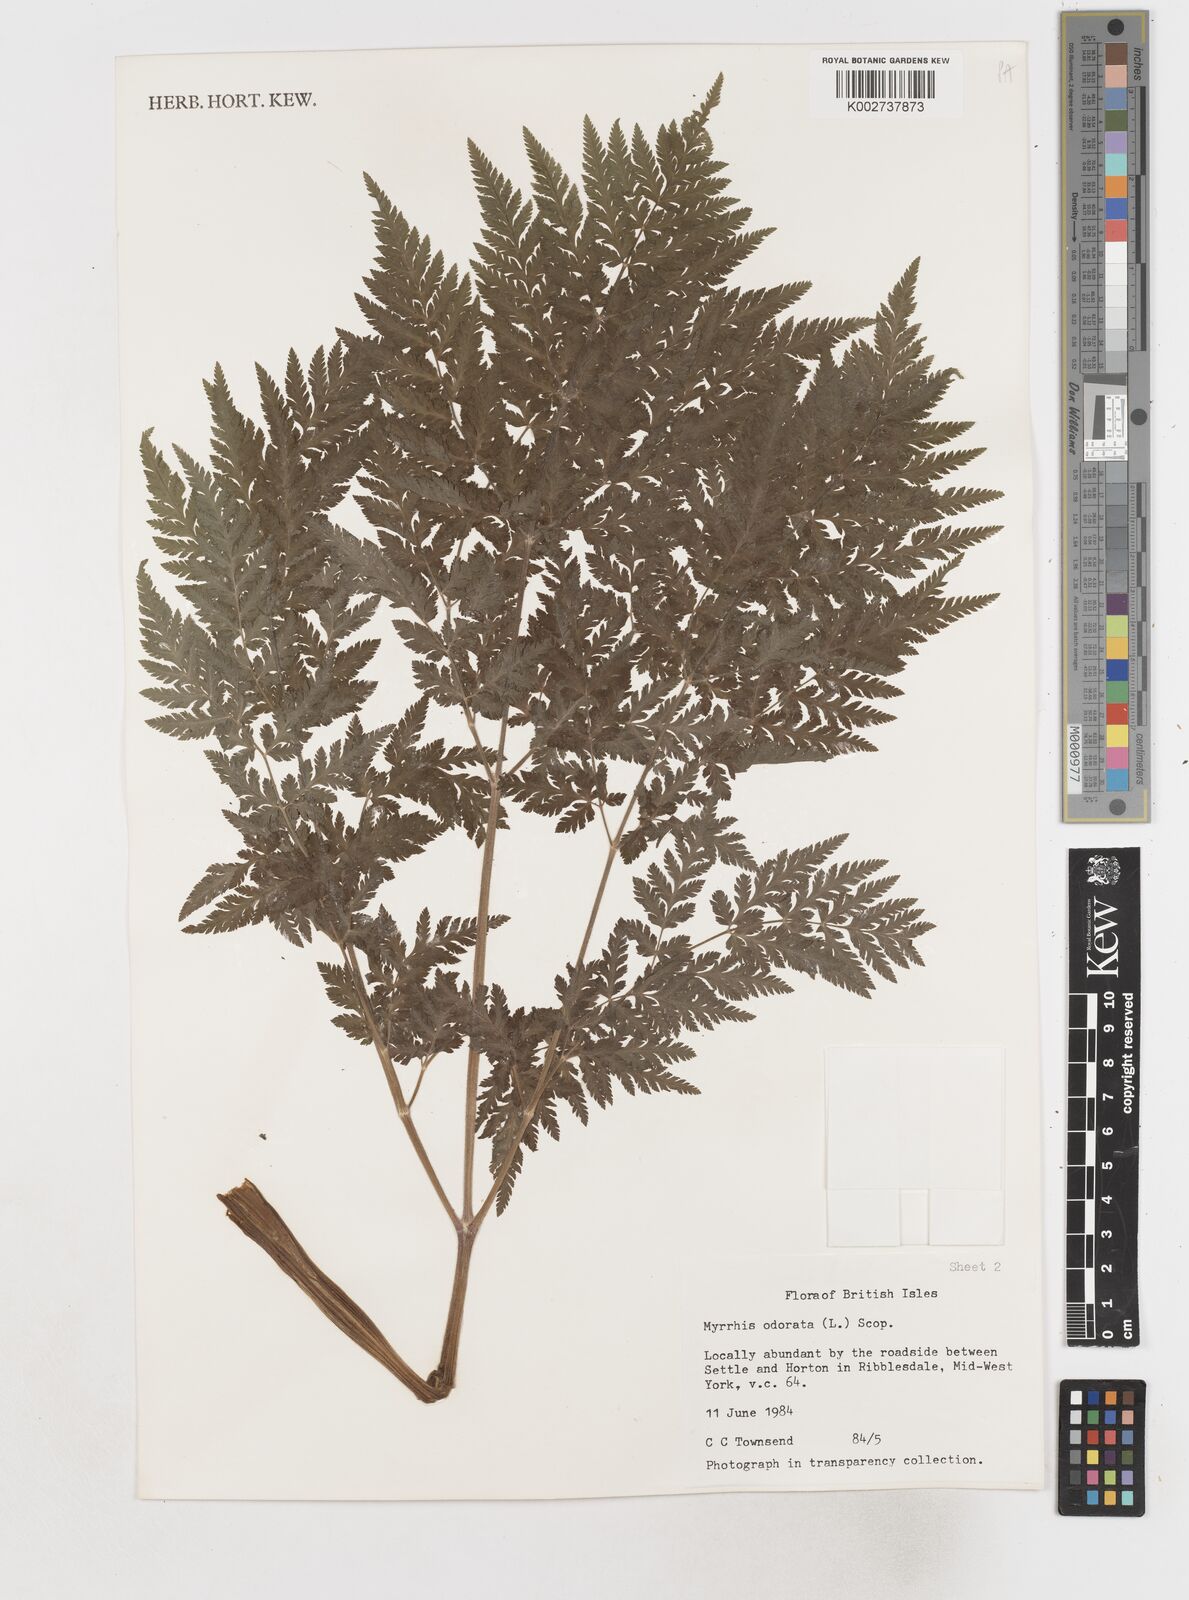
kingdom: Plantae
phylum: Tracheophyta
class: Magnoliopsida
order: Apiales
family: Apiaceae
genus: Myrrhis
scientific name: Myrrhis odorata
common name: Sweet cicely
